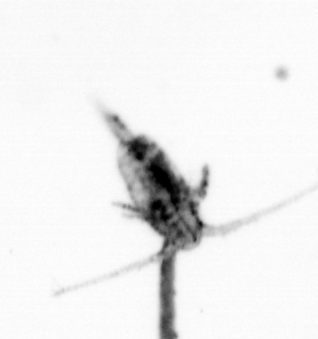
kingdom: Animalia
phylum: Arthropoda
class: Copepoda
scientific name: Copepoda
